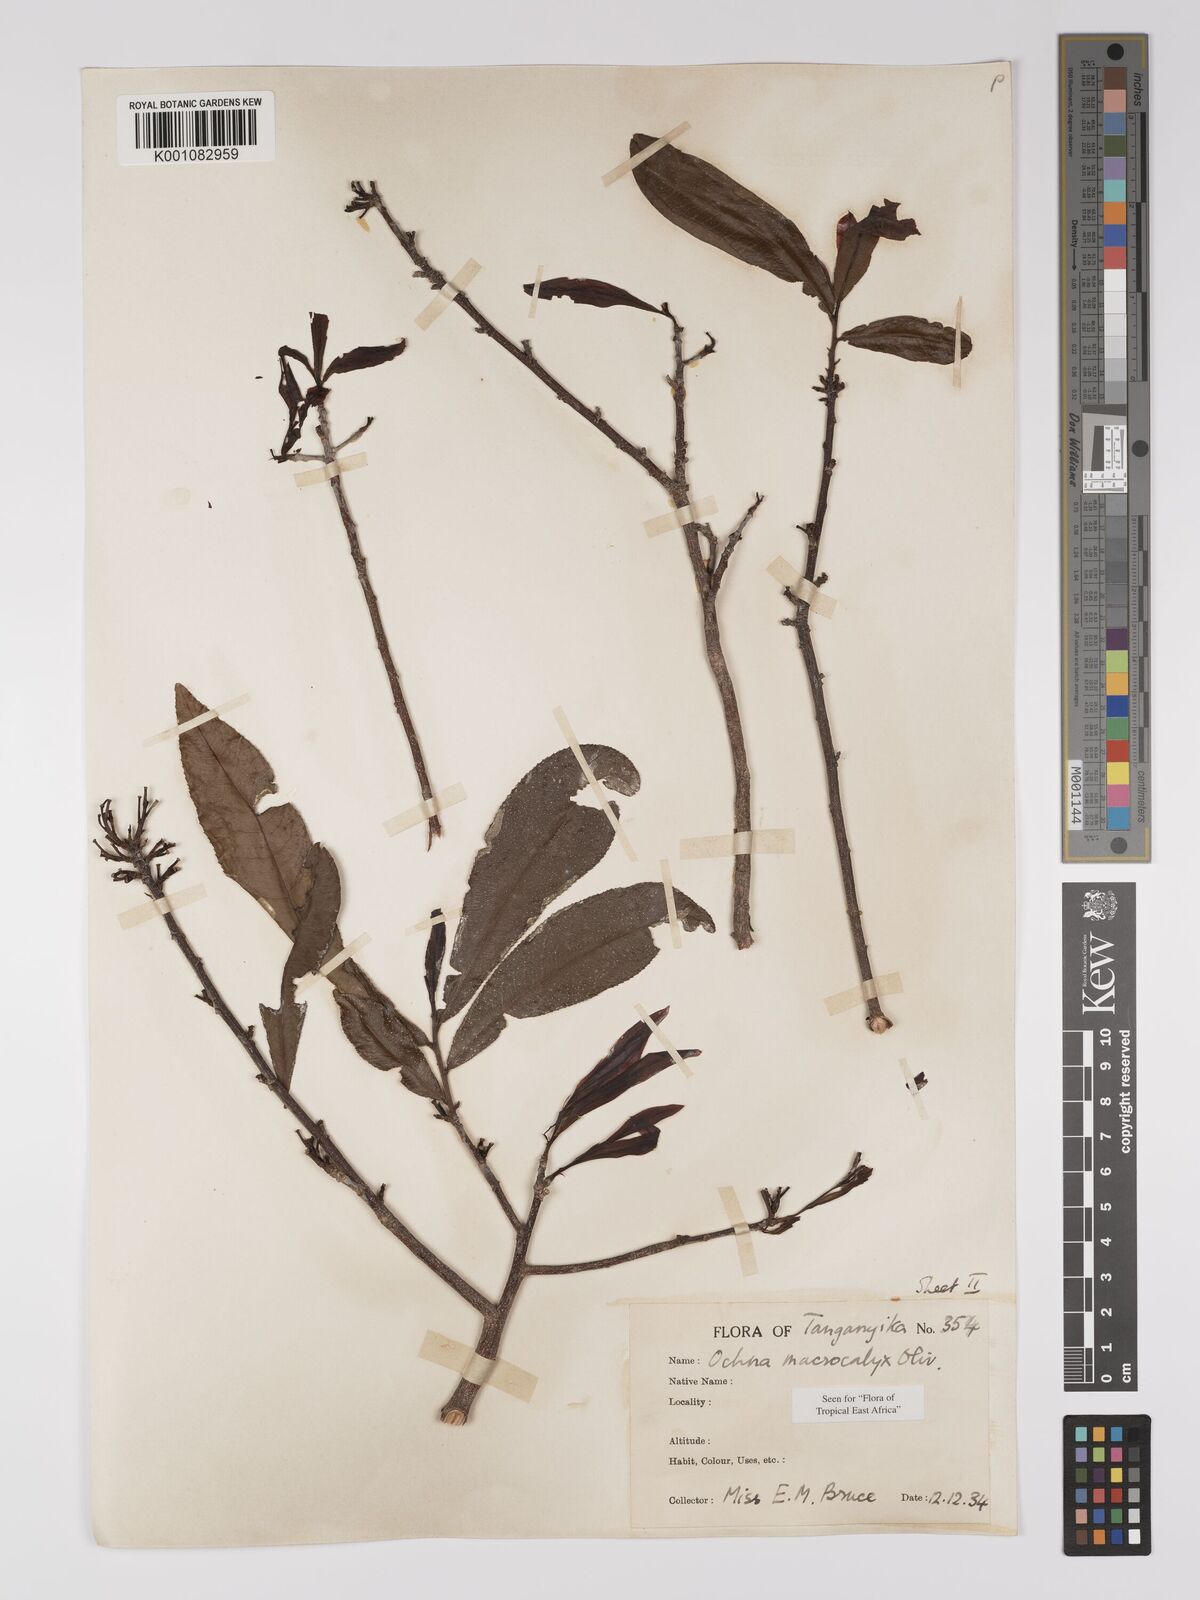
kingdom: Plantae
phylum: Tracheophyta
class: Magnoliopsida
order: Malpighiales
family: Ochnaceae
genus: Ochna
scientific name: Ochna macrocalyx
